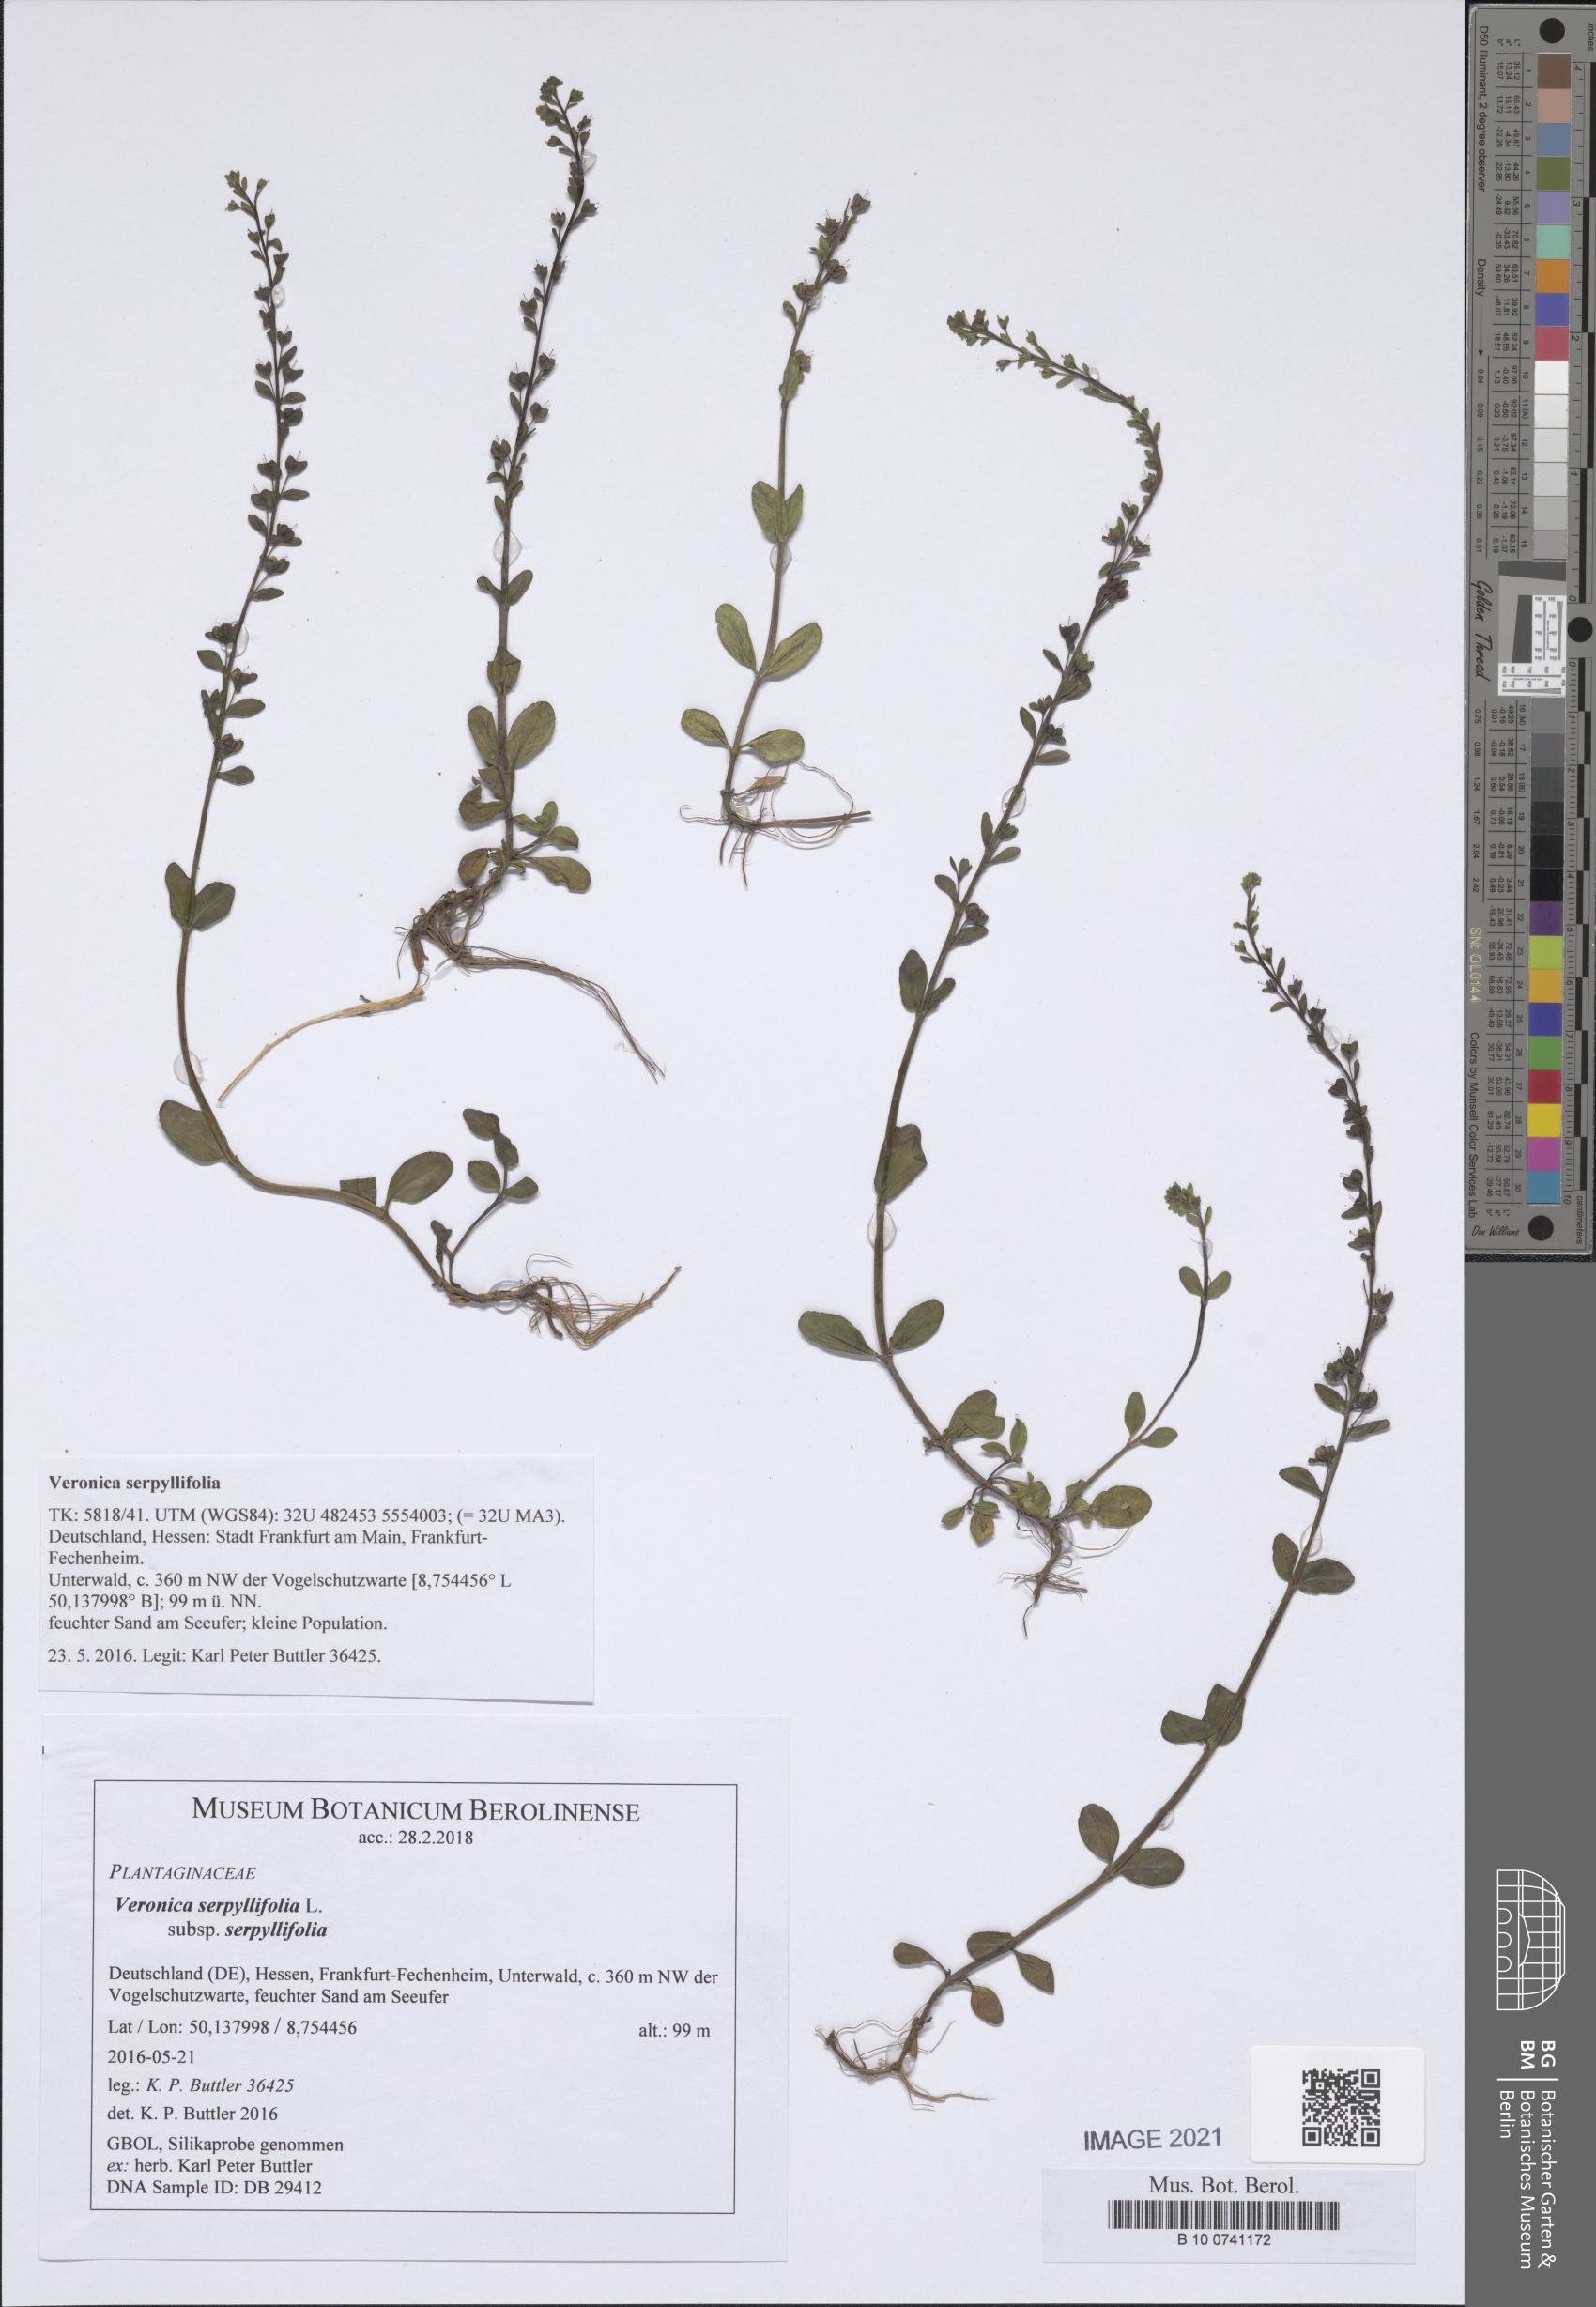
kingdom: Plantae
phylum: Tracheophyta
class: Magnoliopsida
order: Lamiales
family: Plantaginaceae
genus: Veronica
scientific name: Veronica serpyllifolia
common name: Thyme-leaved speedwell
